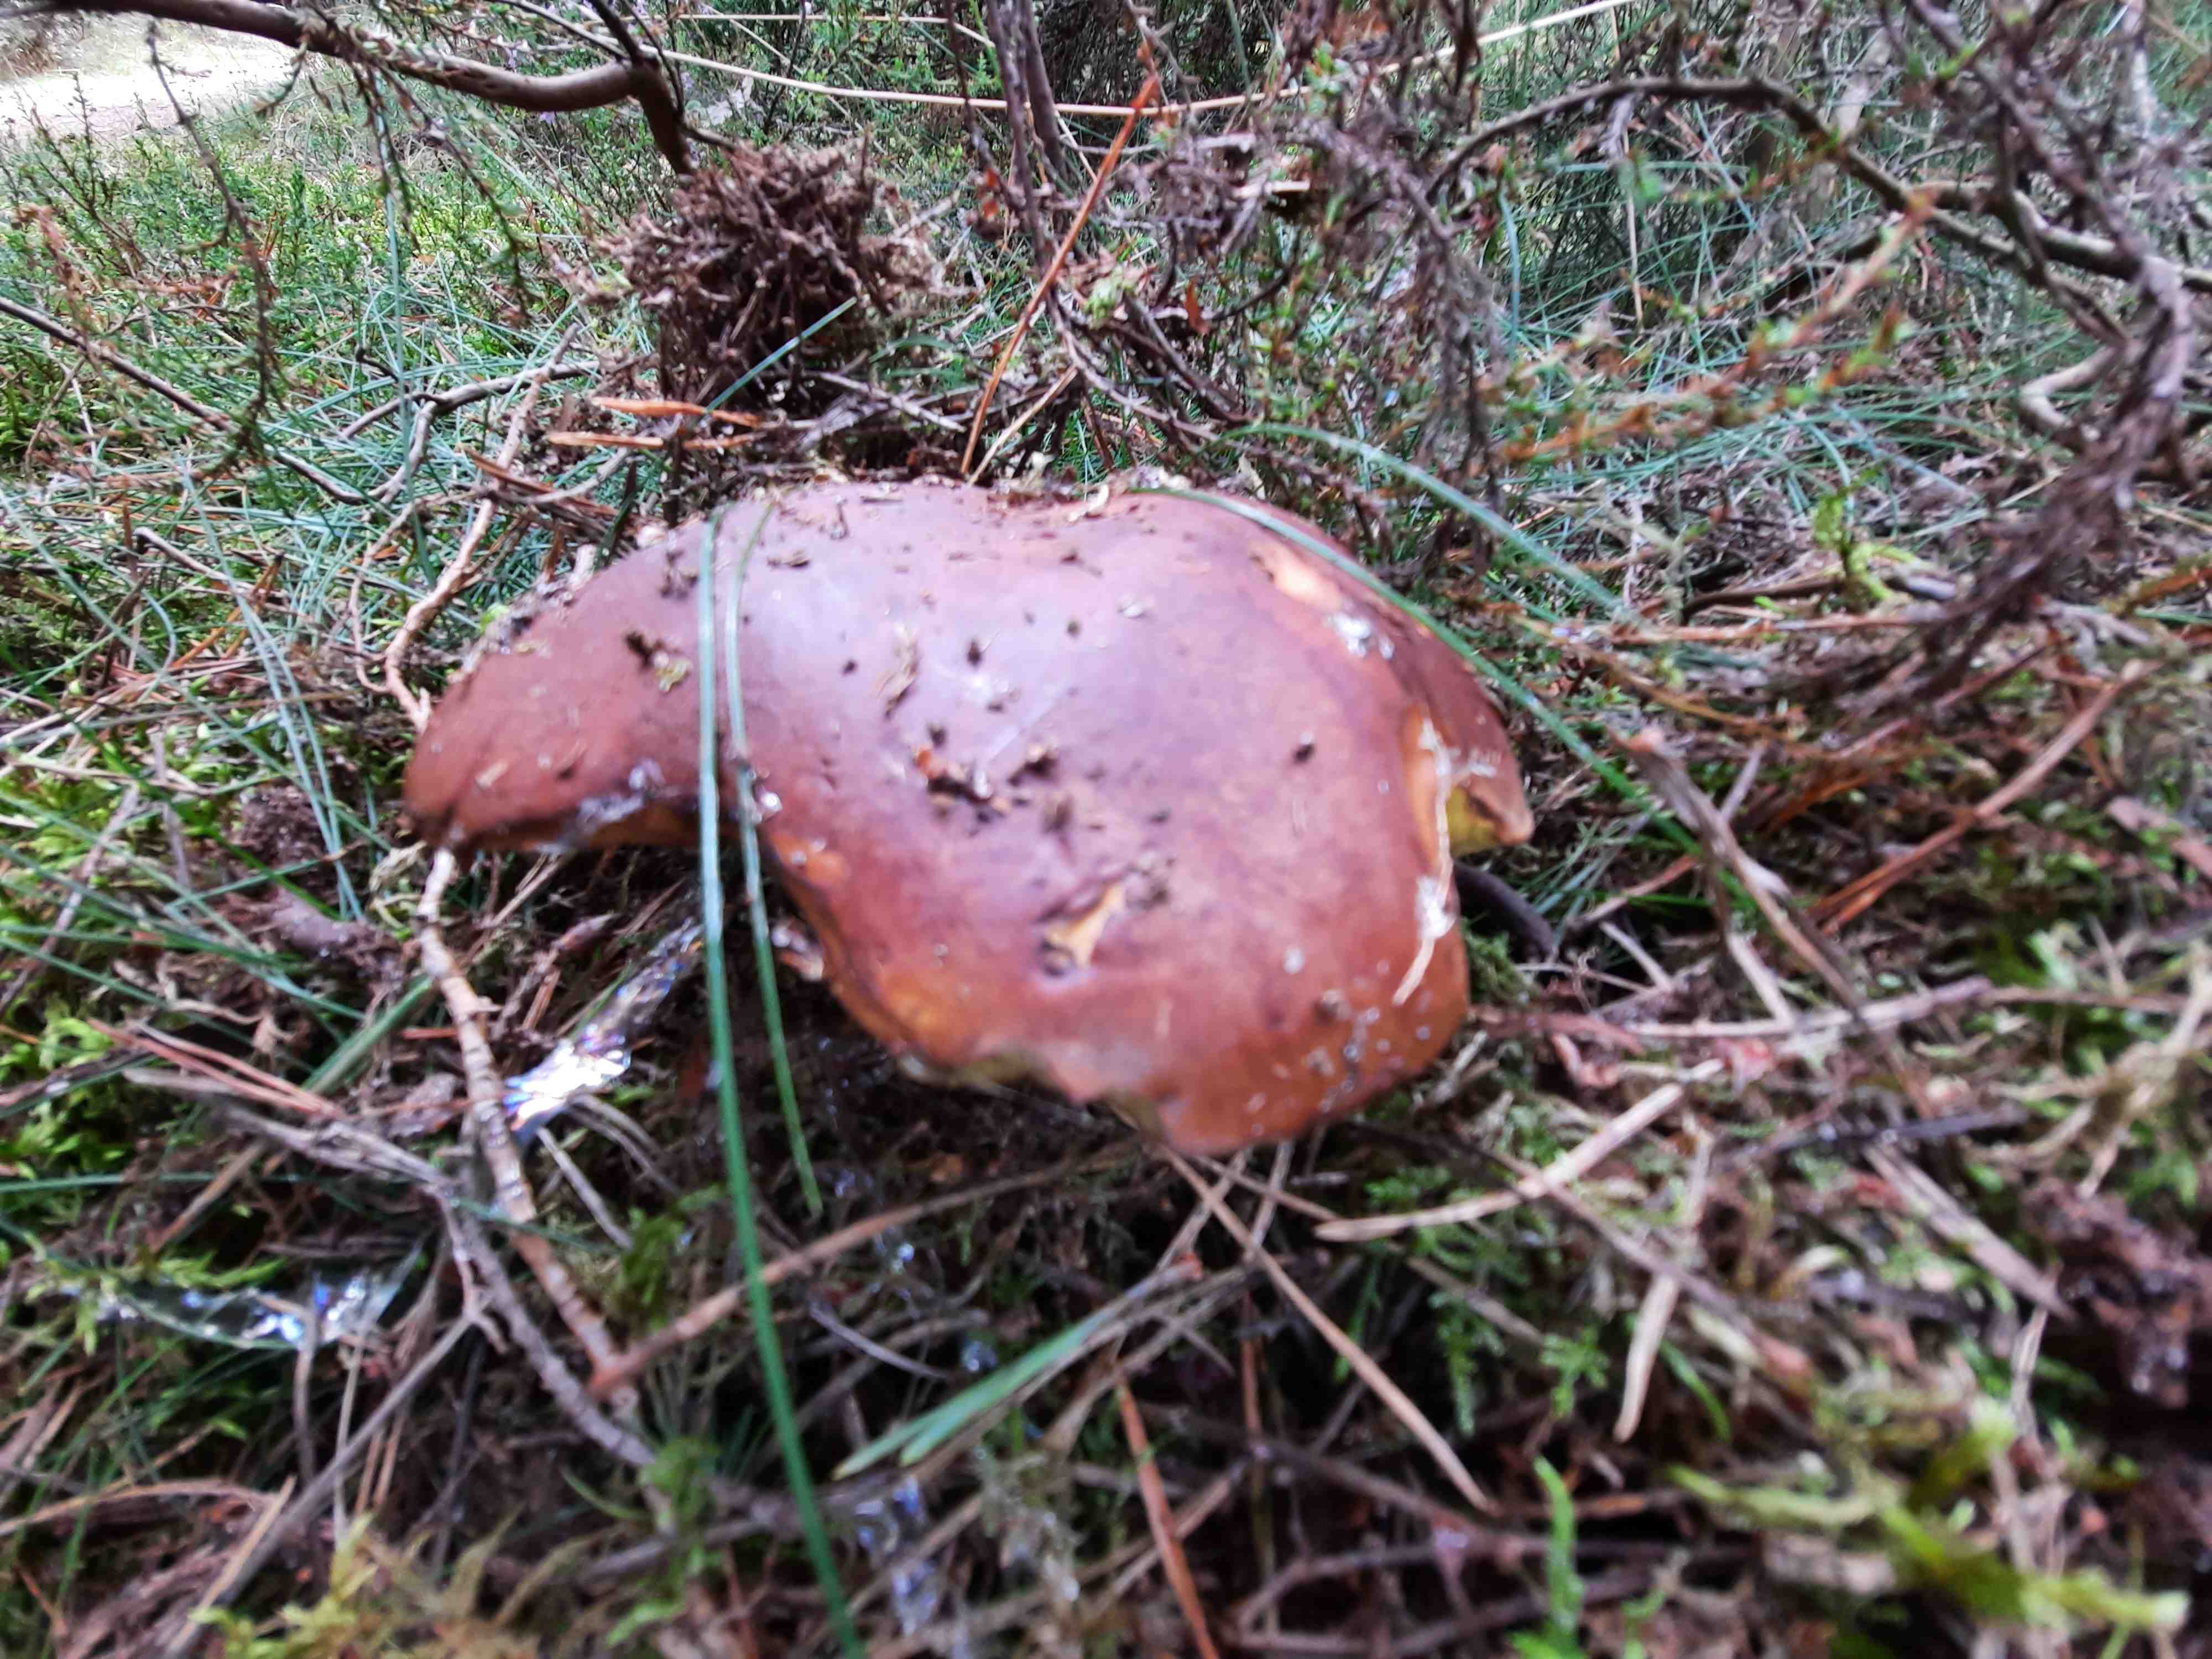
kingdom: Fungi
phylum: Basidiomycota
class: Agaricomycetes
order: Boletales
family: Boletaceae
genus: Imleria
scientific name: Imleria badia
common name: brunstokket rørhat
